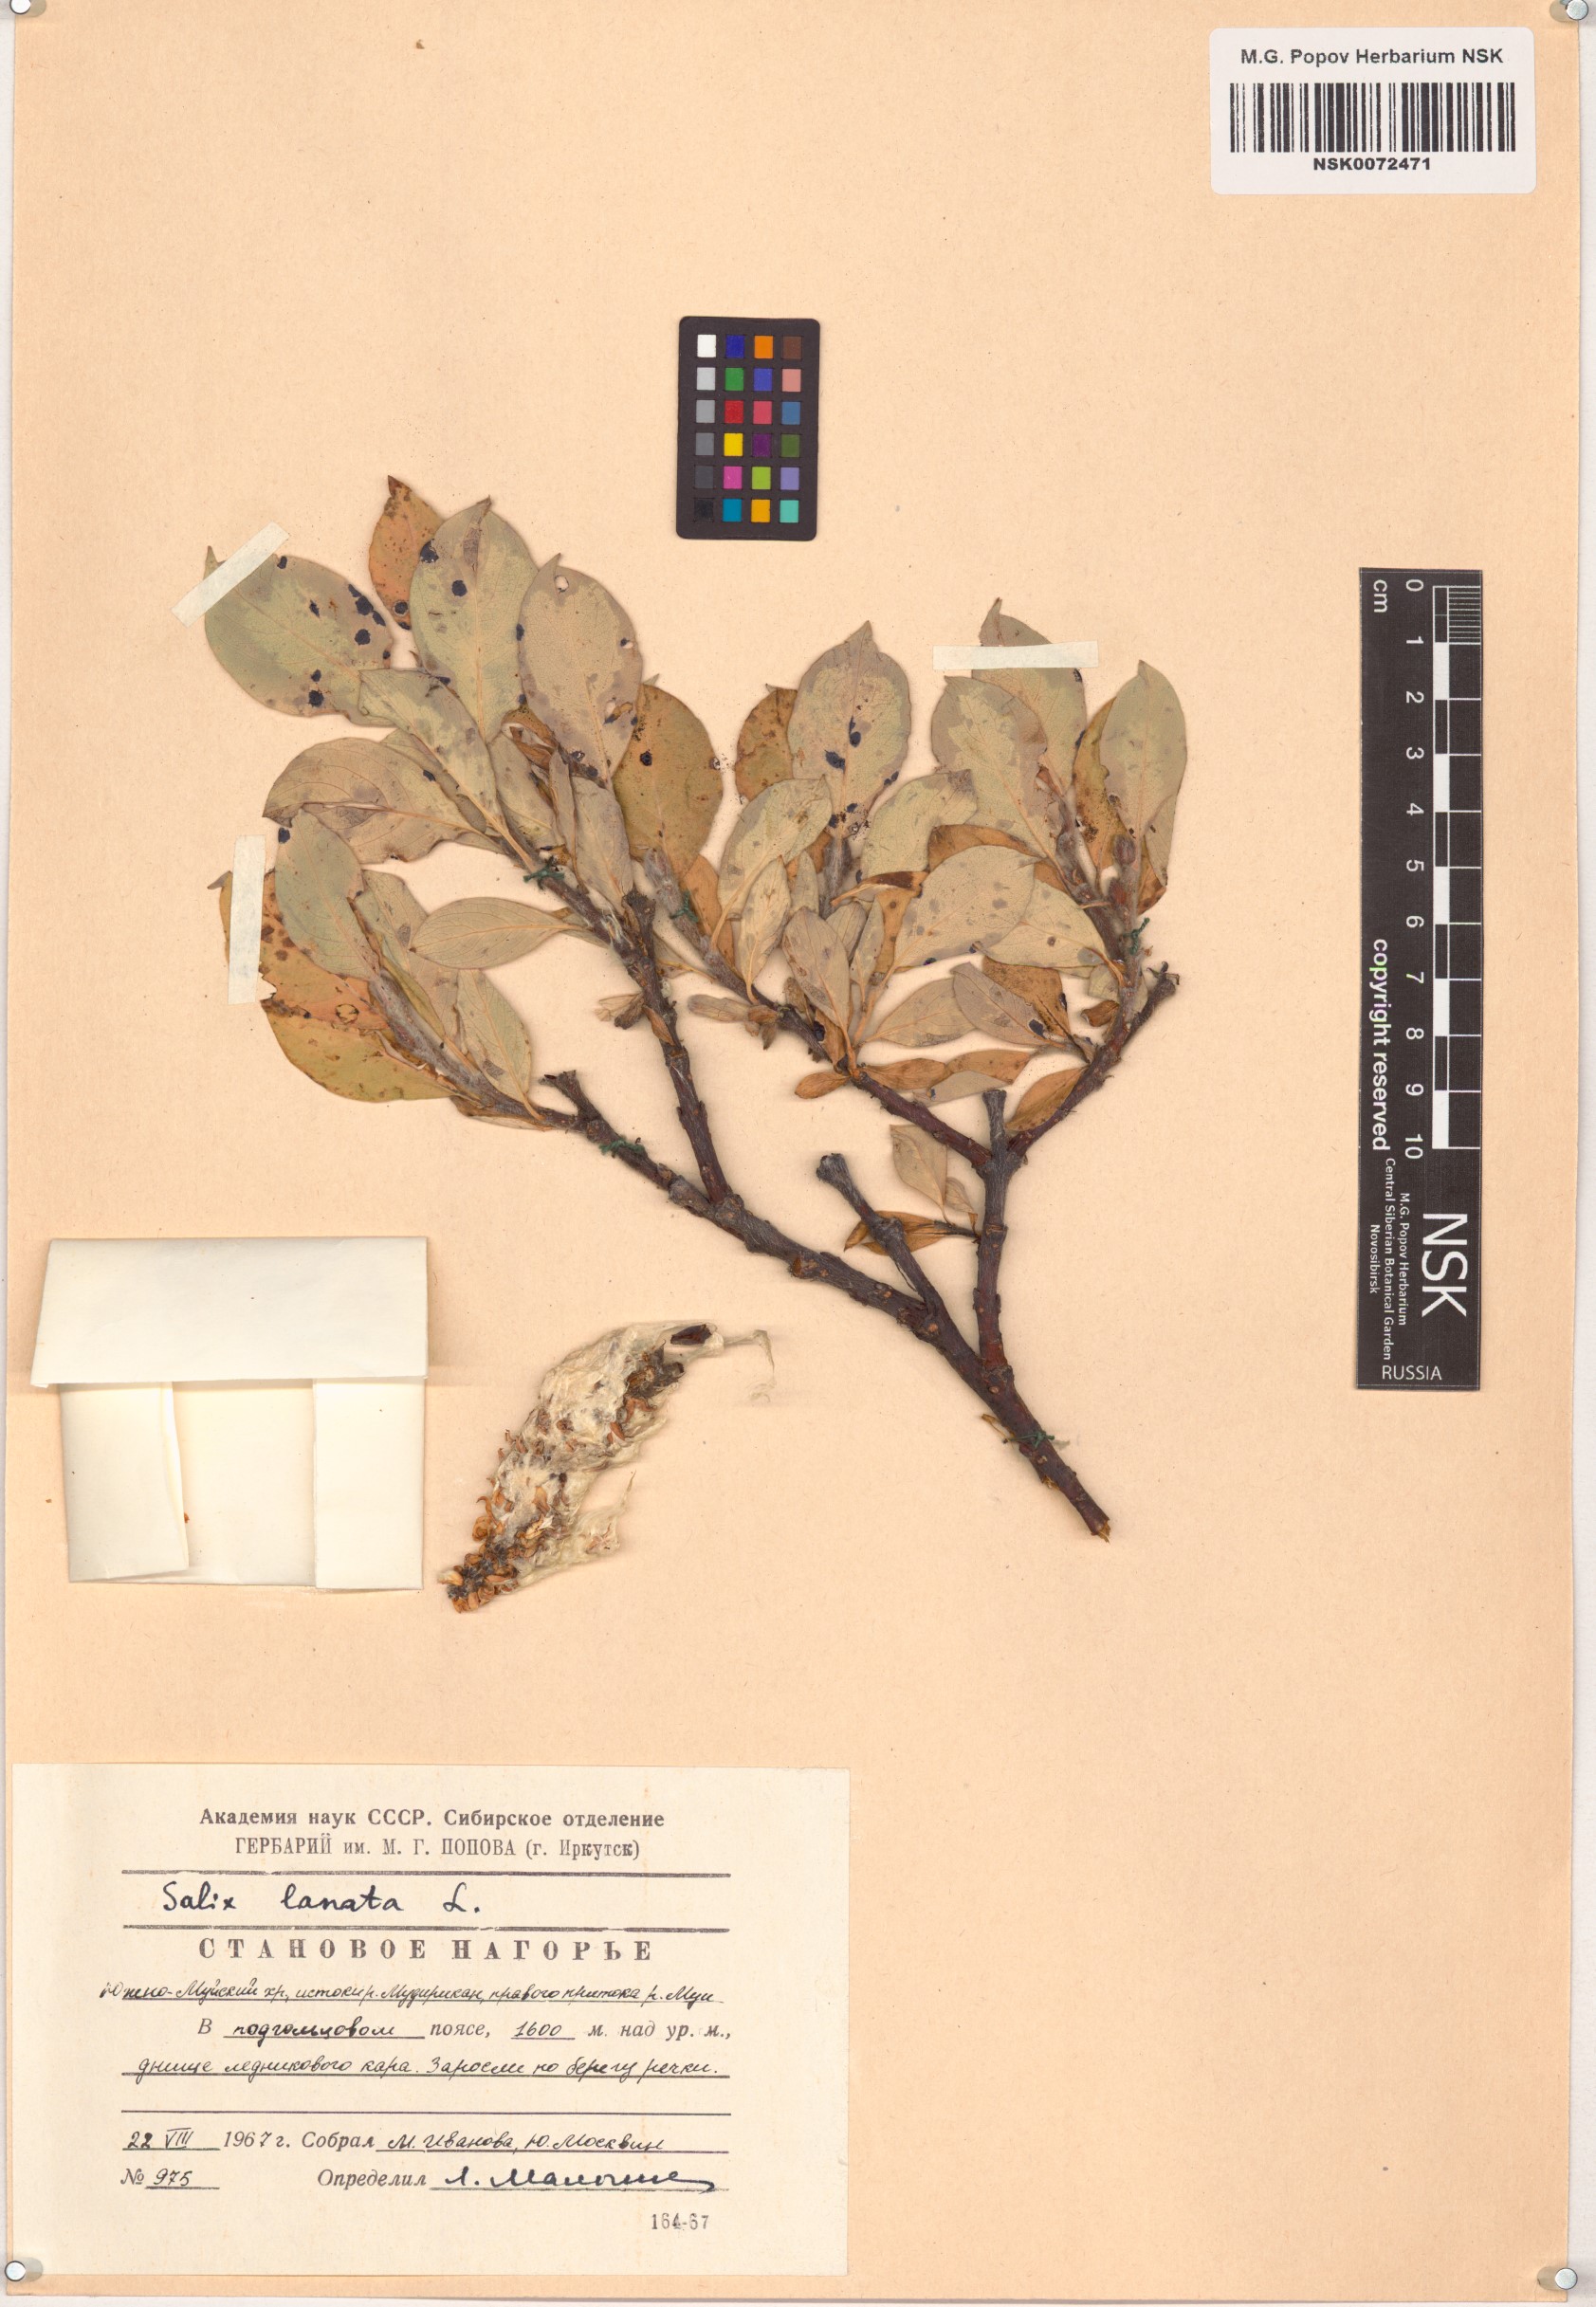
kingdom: Plantae
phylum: Tracheophyta
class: Magnoliopsida
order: Malpighiales
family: Salicaceae
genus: Salix
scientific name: Salix lanata
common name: Woolly willow
